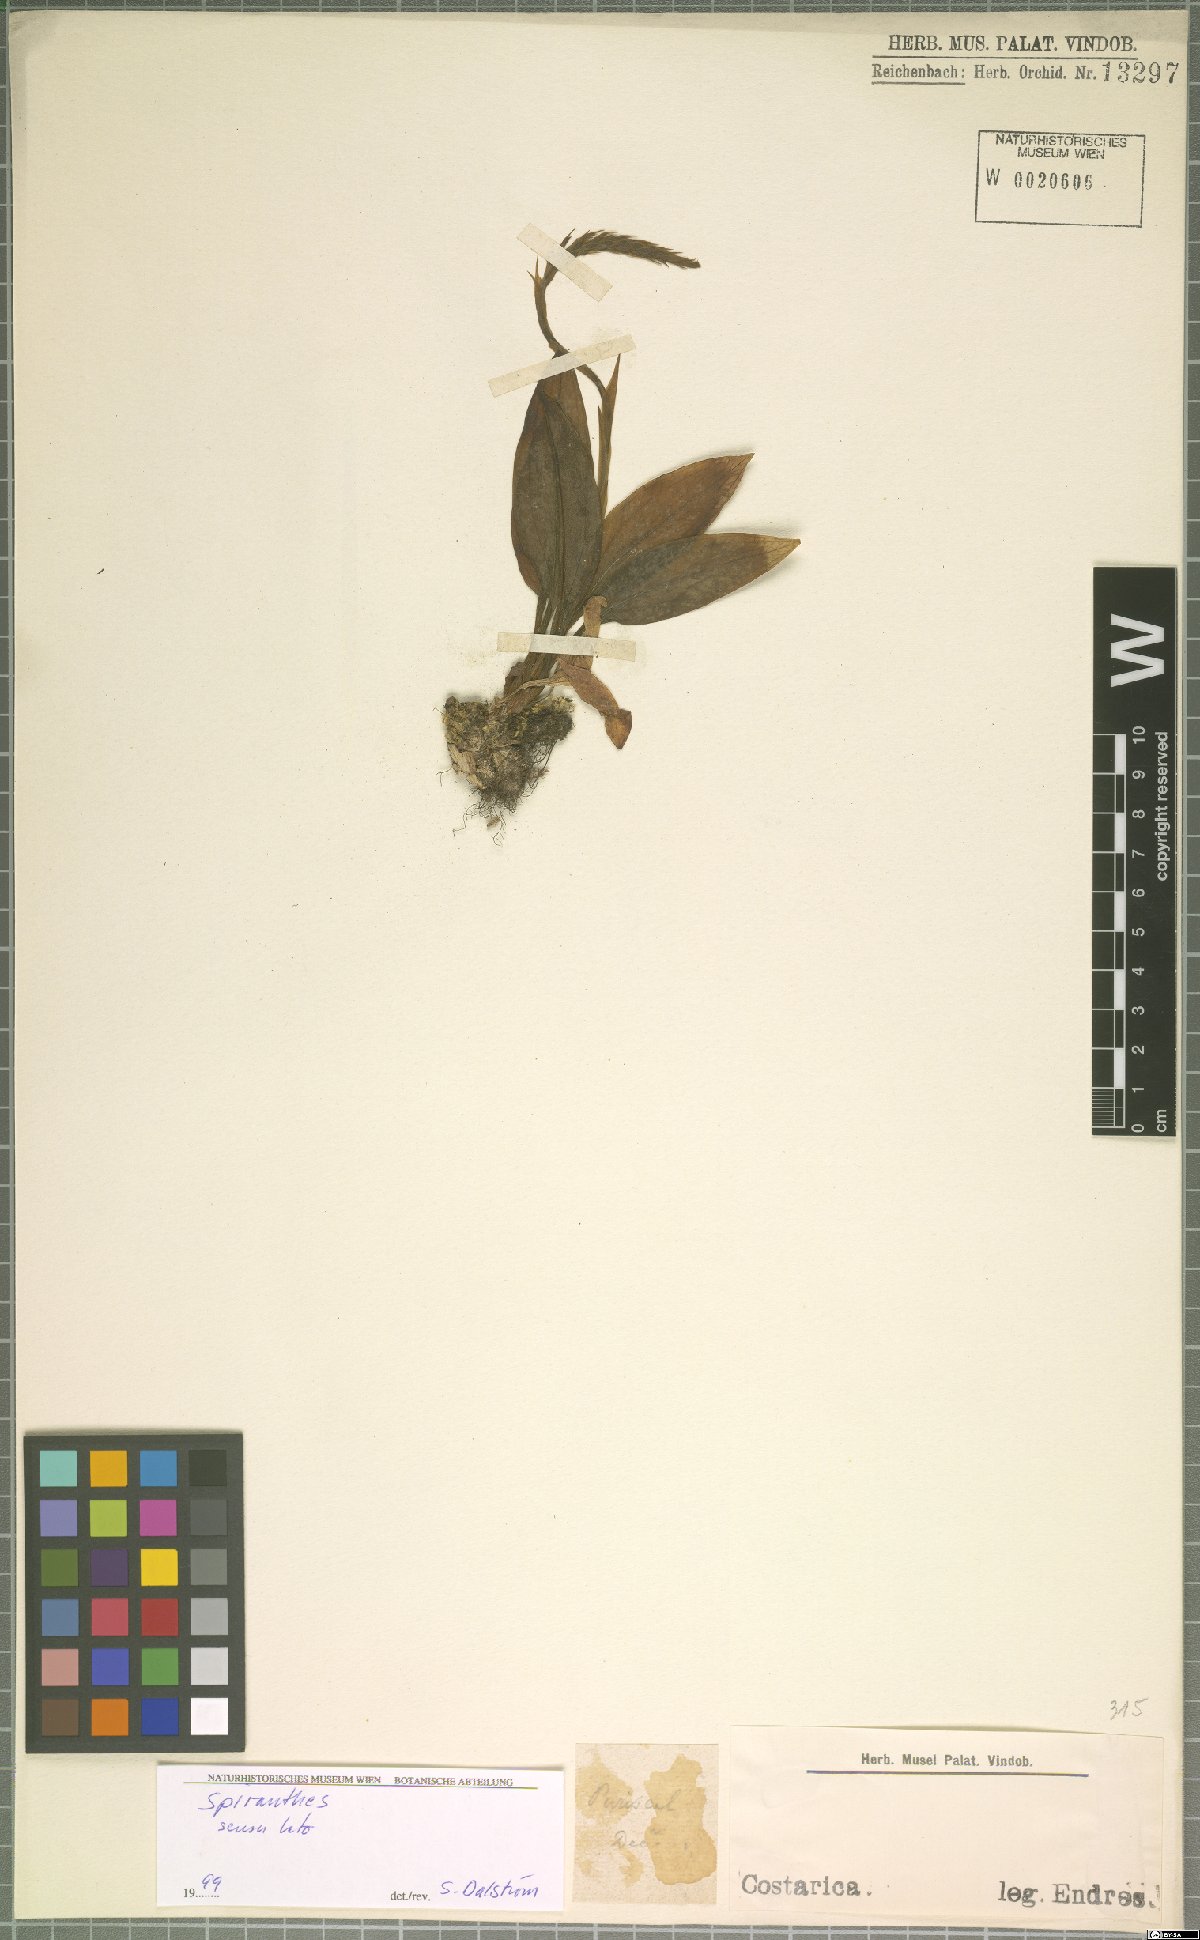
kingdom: Plantae
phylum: Tracheophyta
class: Liliopsida
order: Asparagales
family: Orchidaceae
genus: Spiranthes
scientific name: Spiranthes
